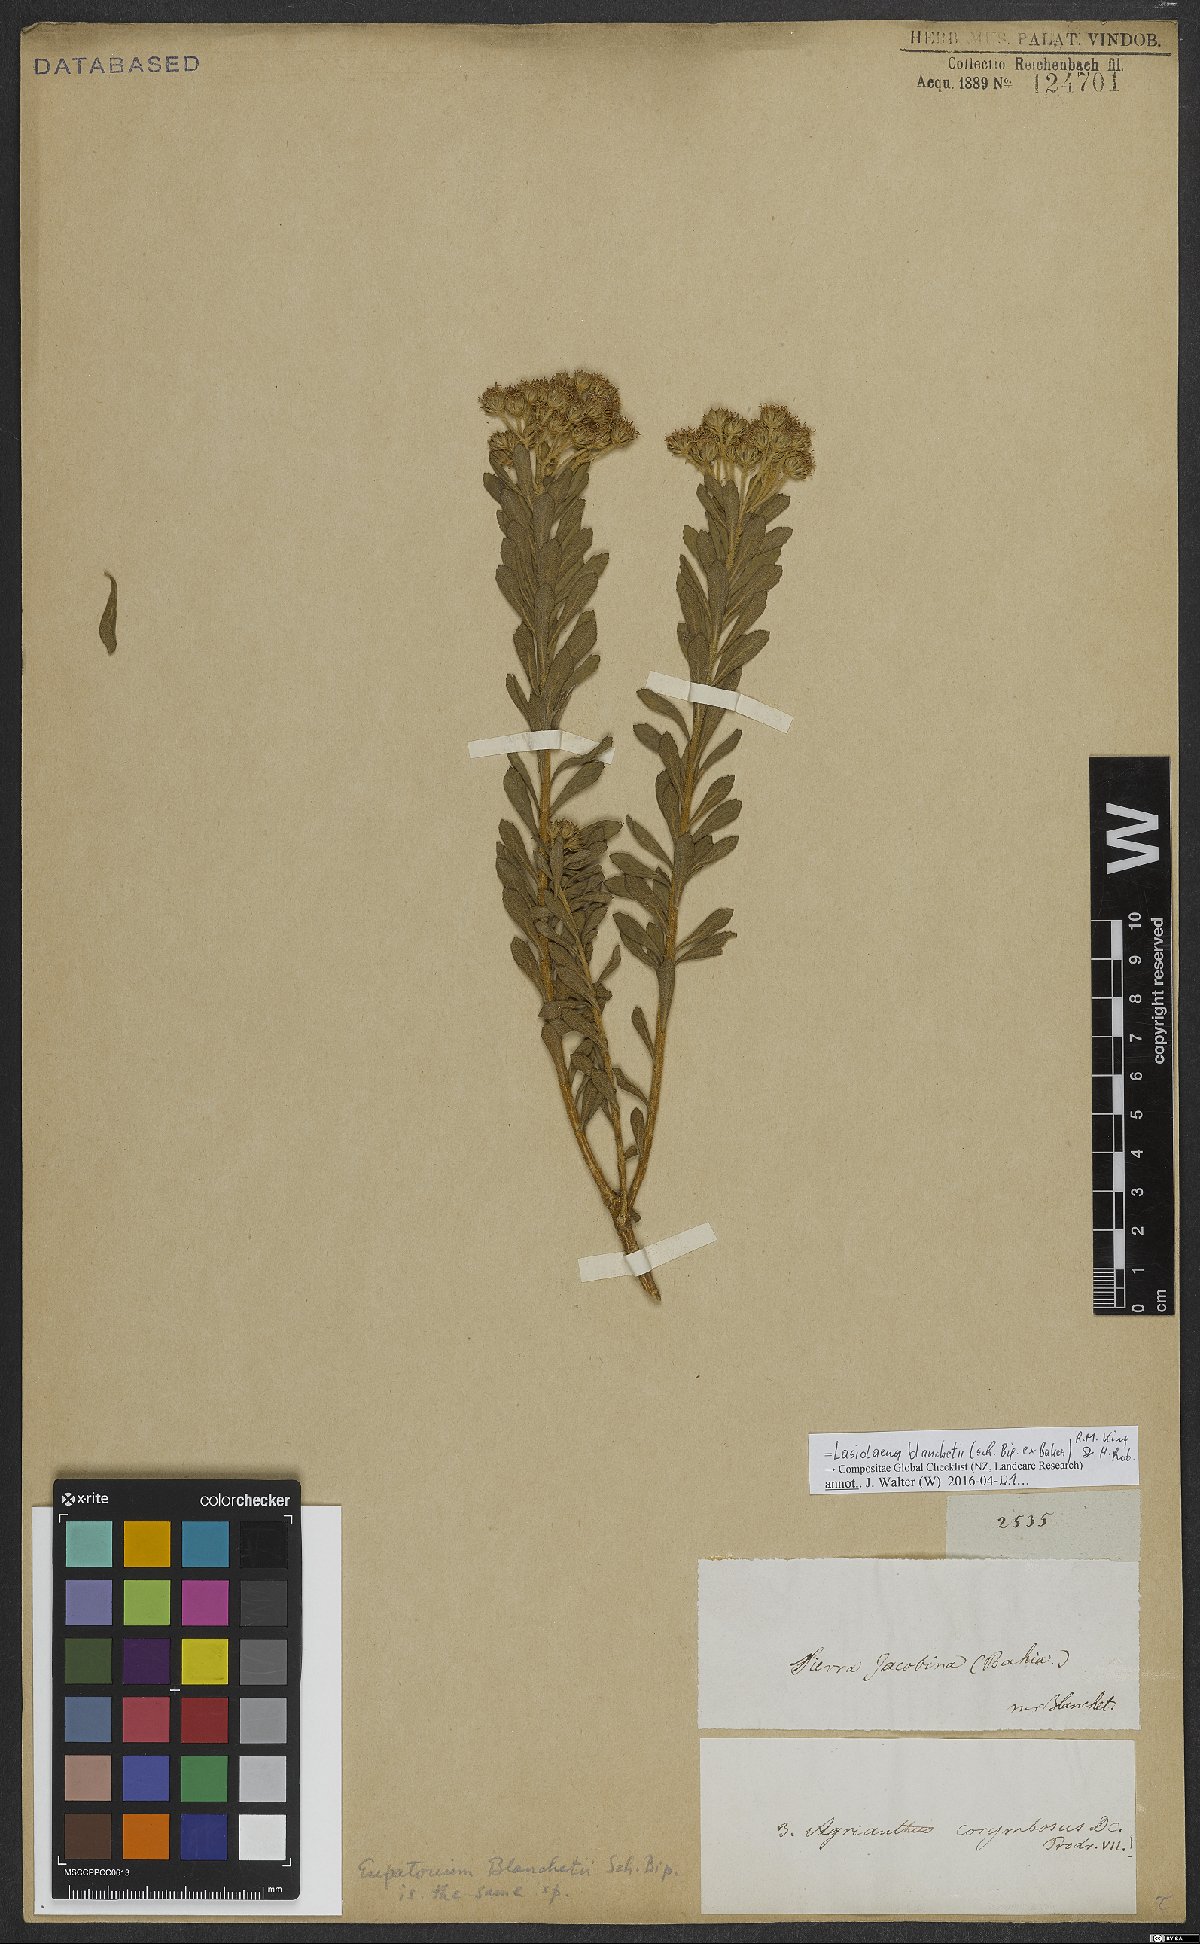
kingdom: Plantae
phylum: Tracheophyta
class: Magnoliopsida
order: Asterales
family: Asteraceae
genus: Lasiolaena
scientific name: Lasiolaena blanchetii
